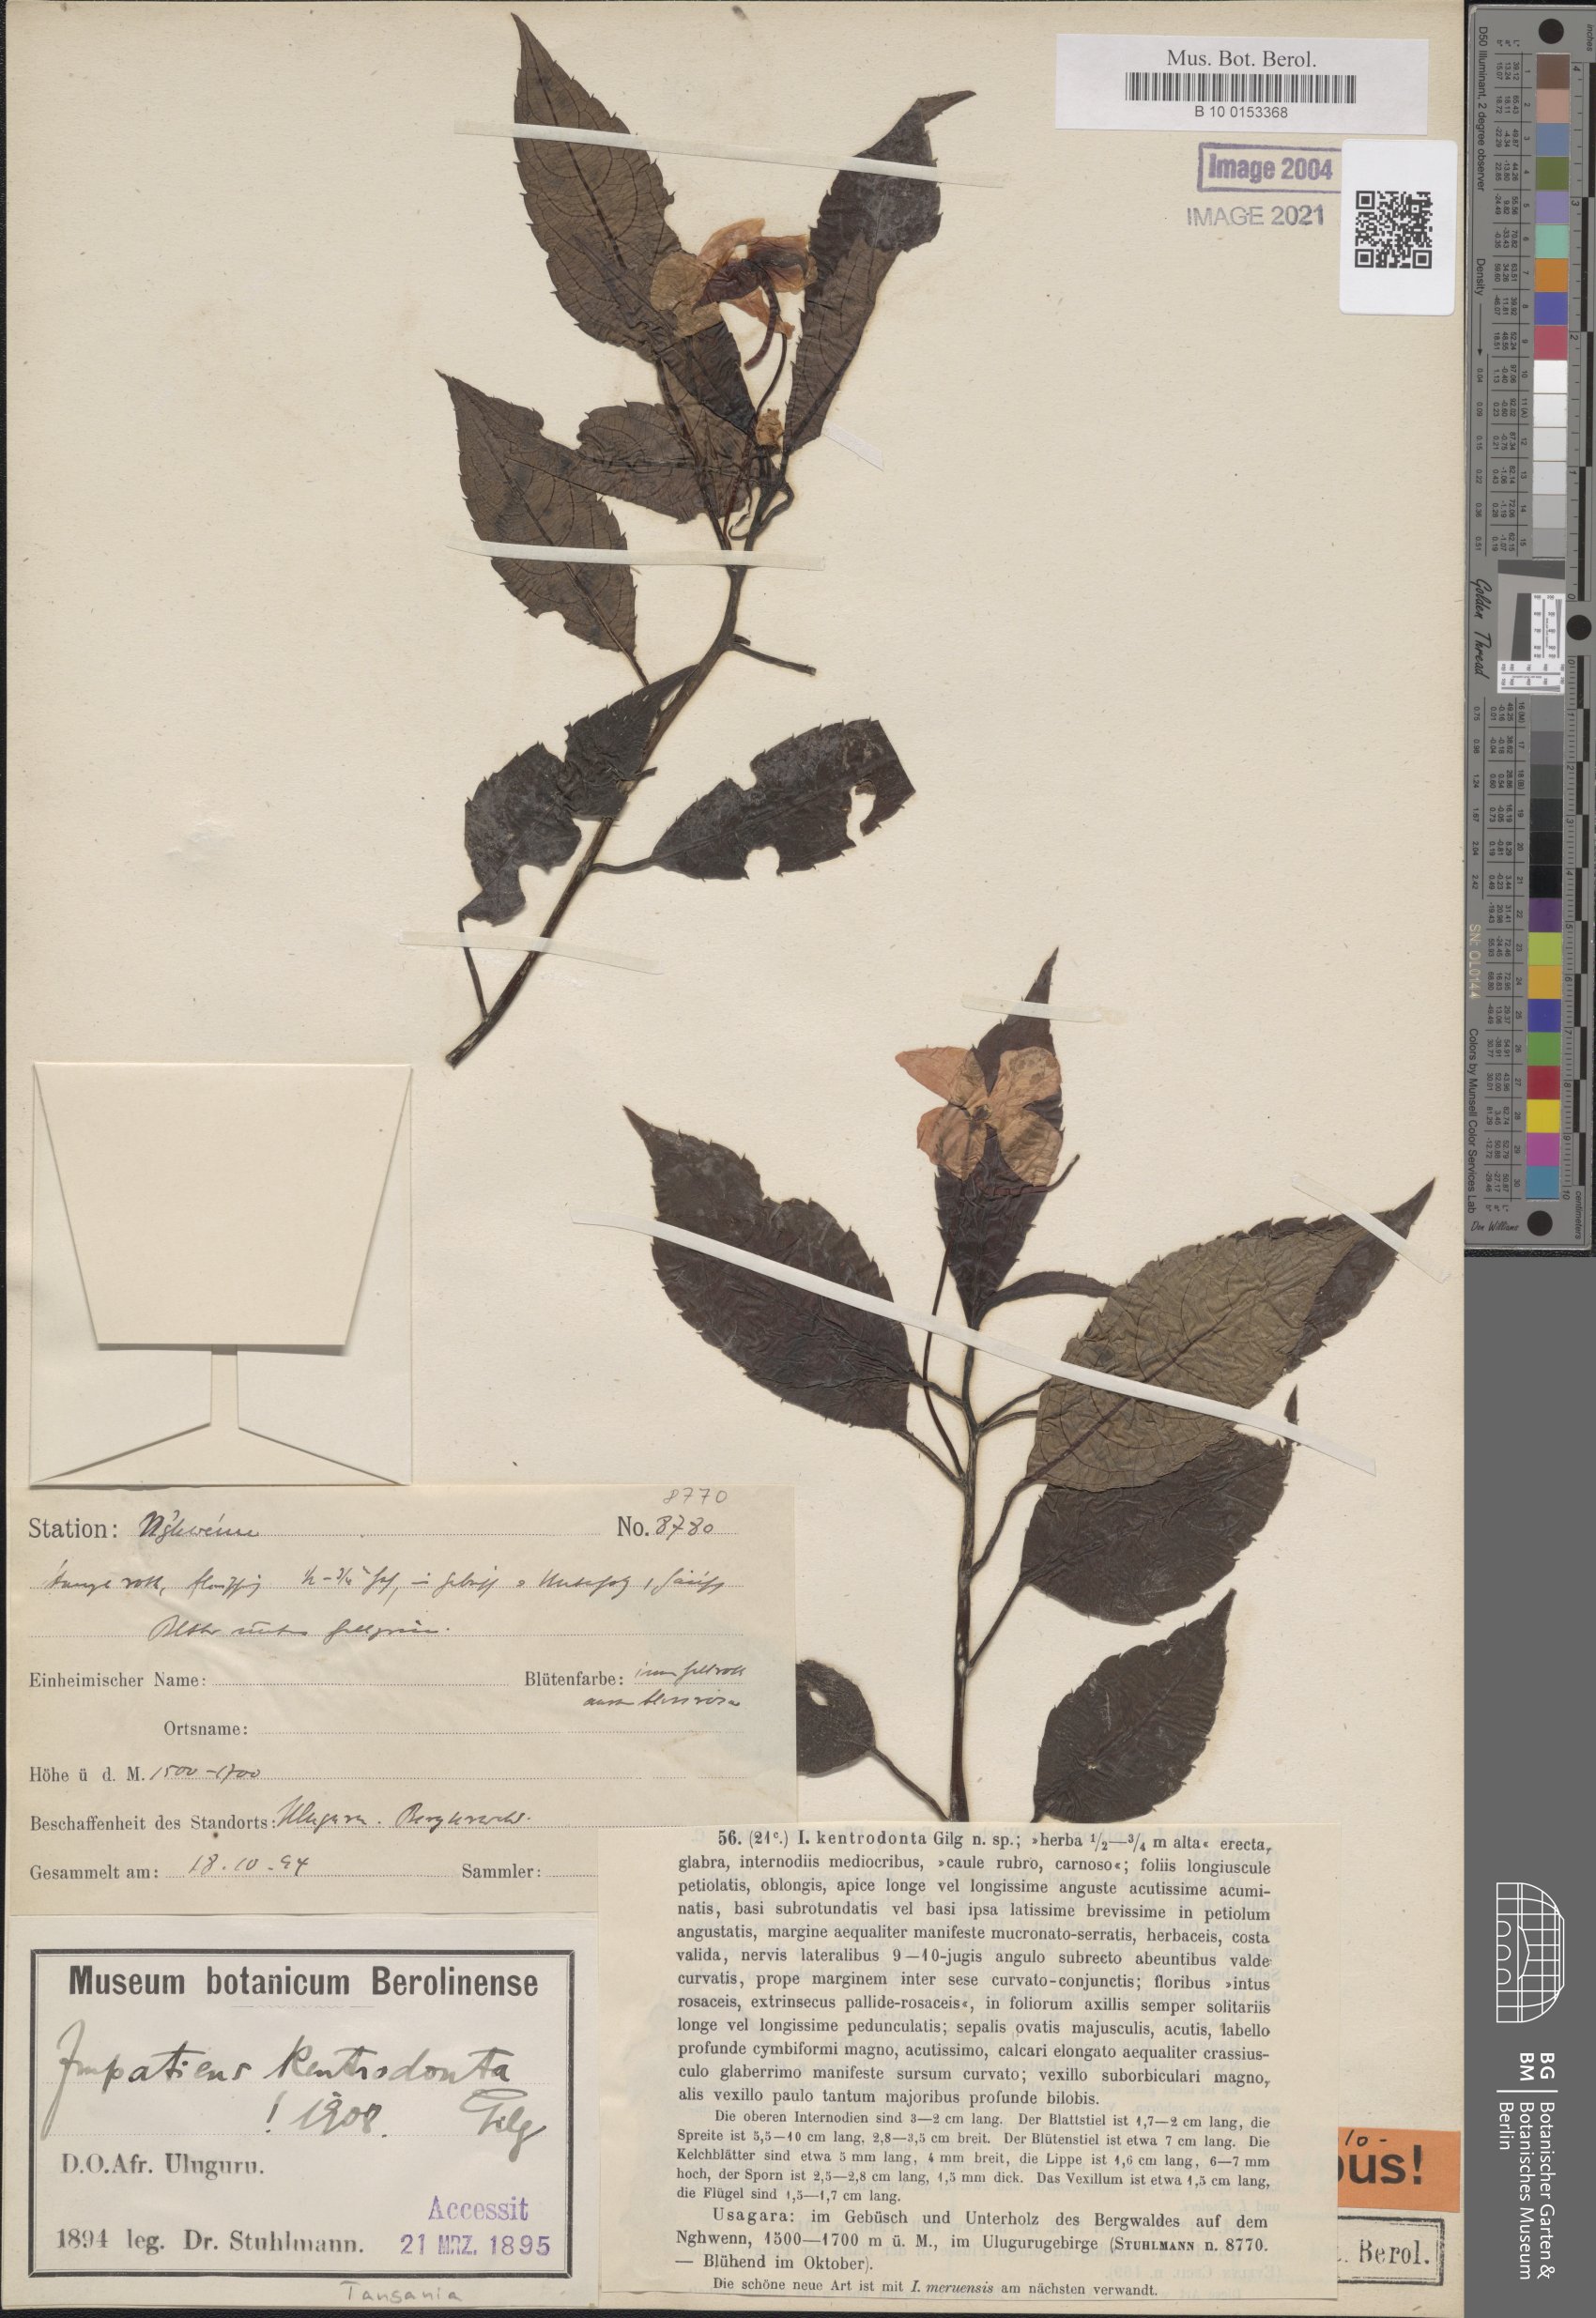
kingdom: Plantae
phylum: Tracheophyta
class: Magnoliopsida
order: Ericales
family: Balsaminaceae
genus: Impatiens
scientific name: Impatiens kentrodonta
